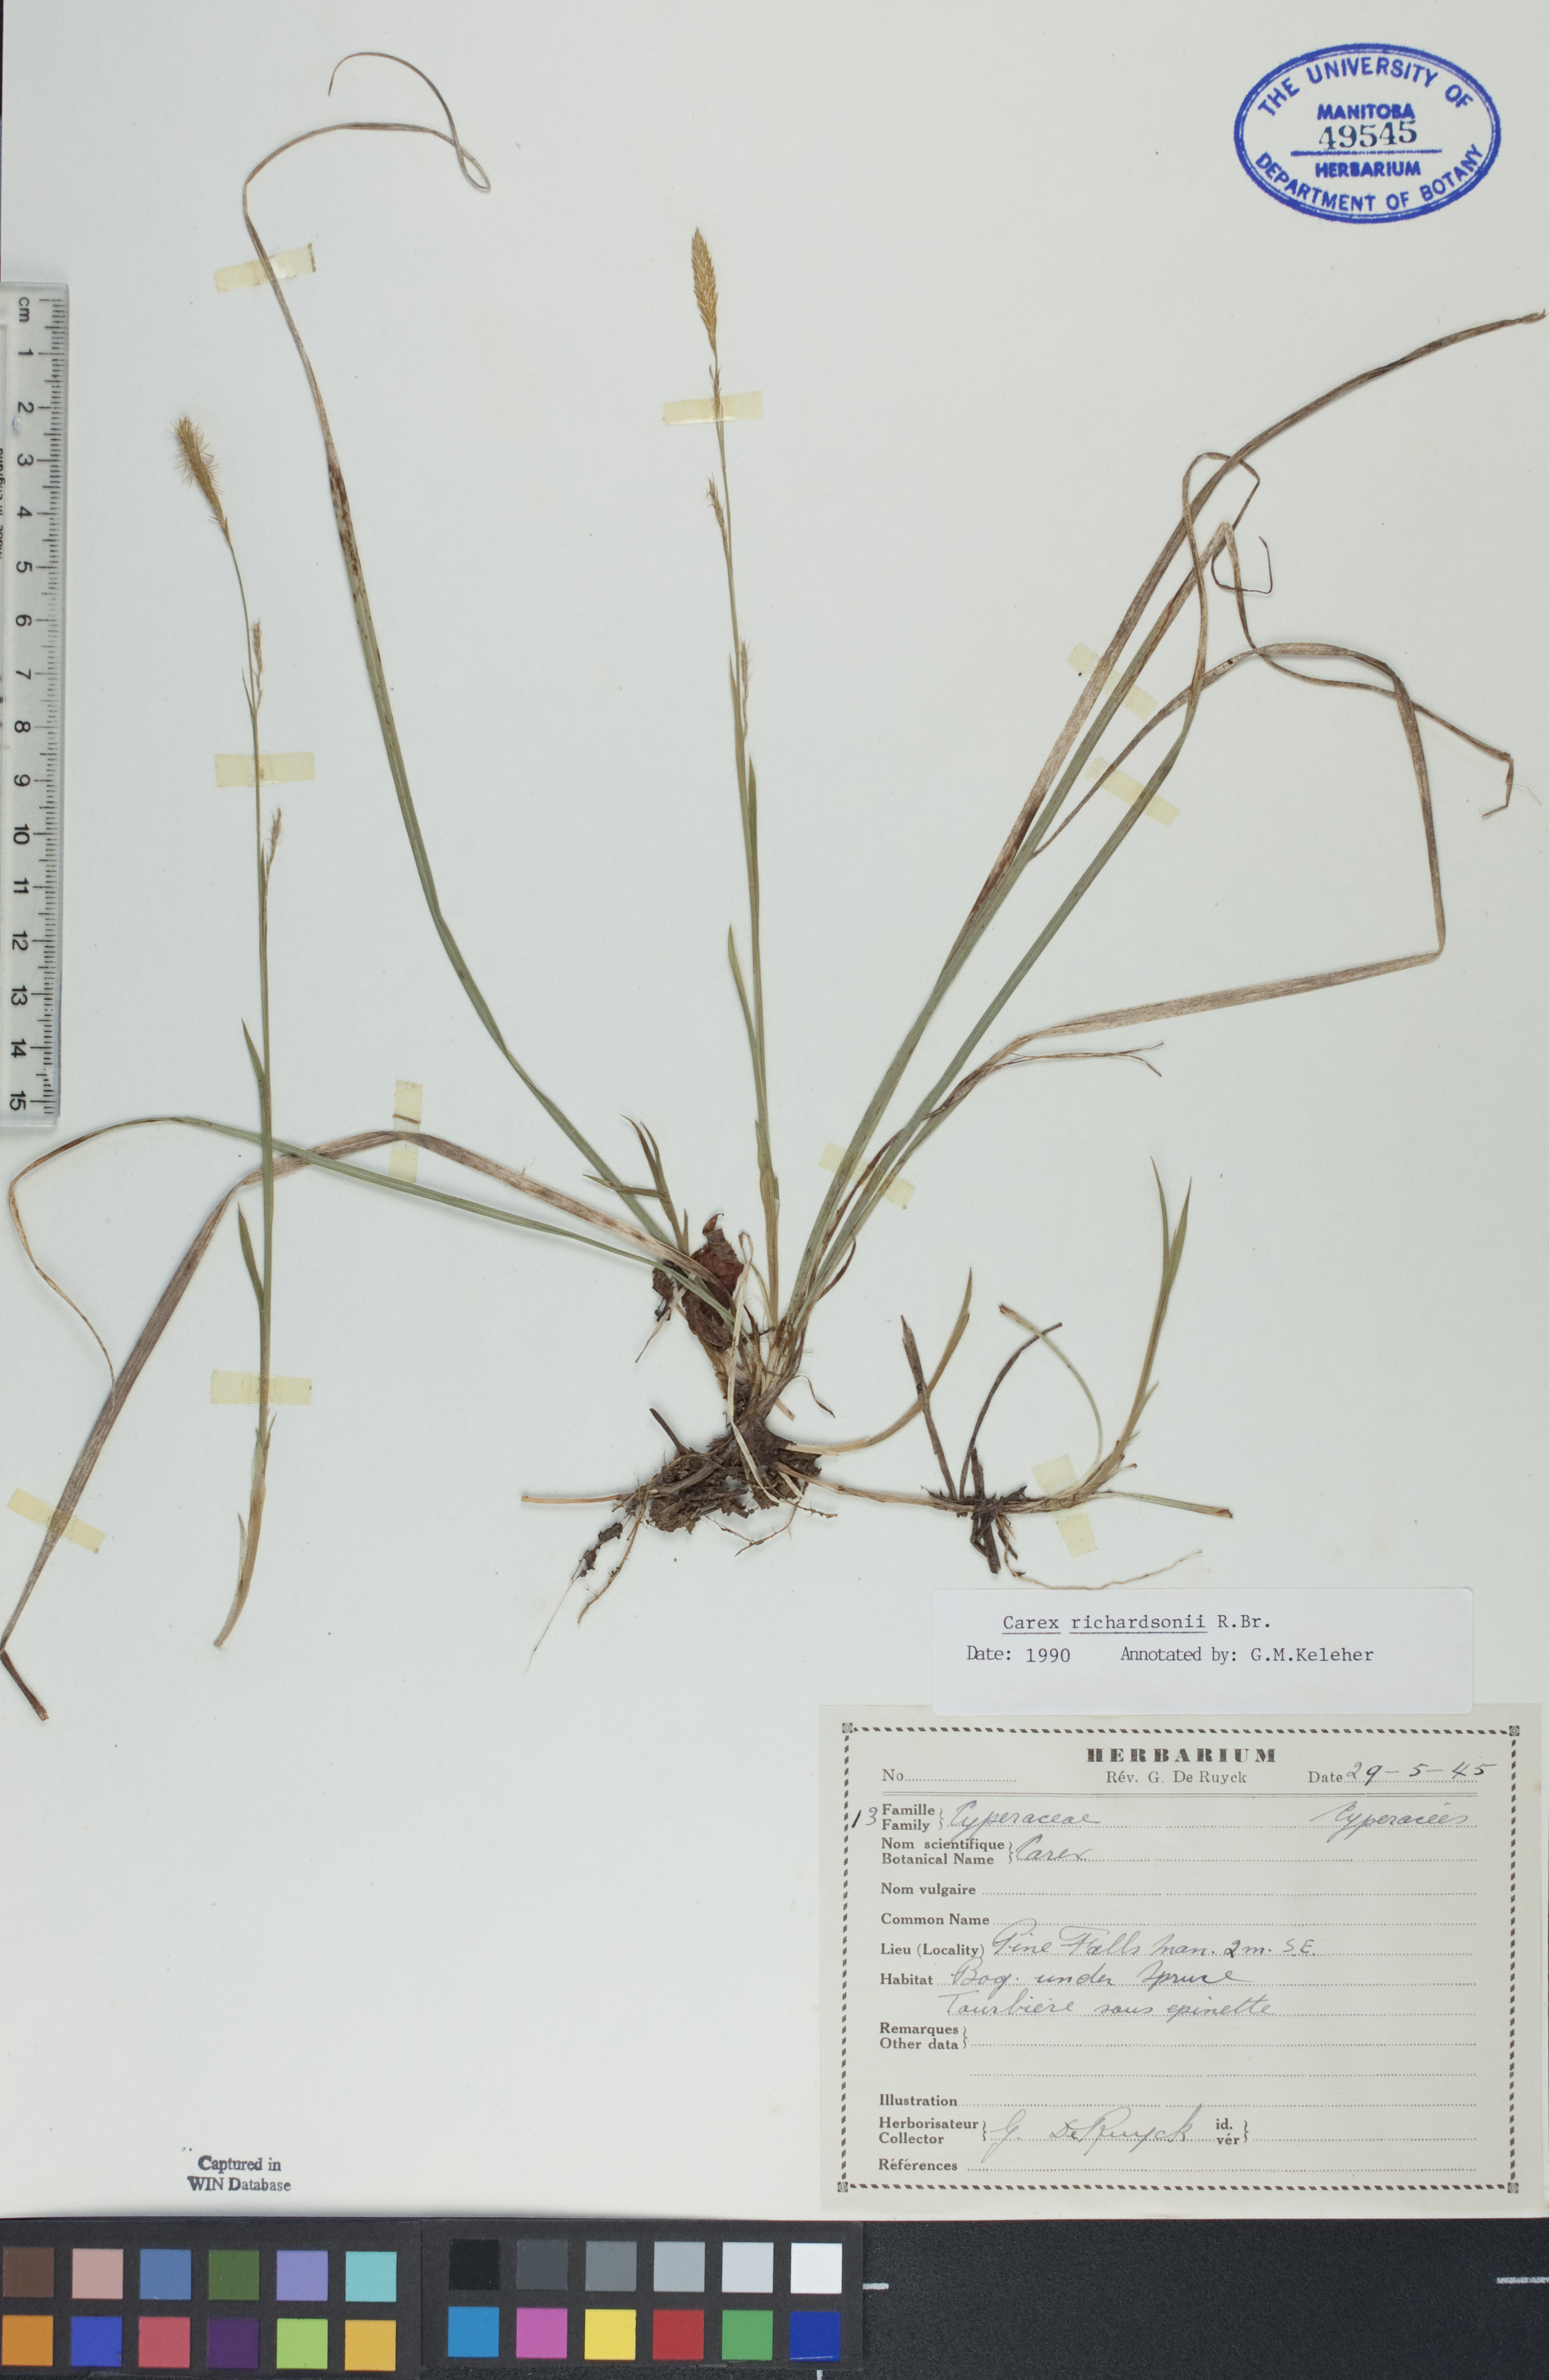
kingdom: Plantae
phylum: Tracheophyta
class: Liliopsida
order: Poales
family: Cyperaceae
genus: Carex
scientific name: Carex richardsonii
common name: Prairie hummock sedge
